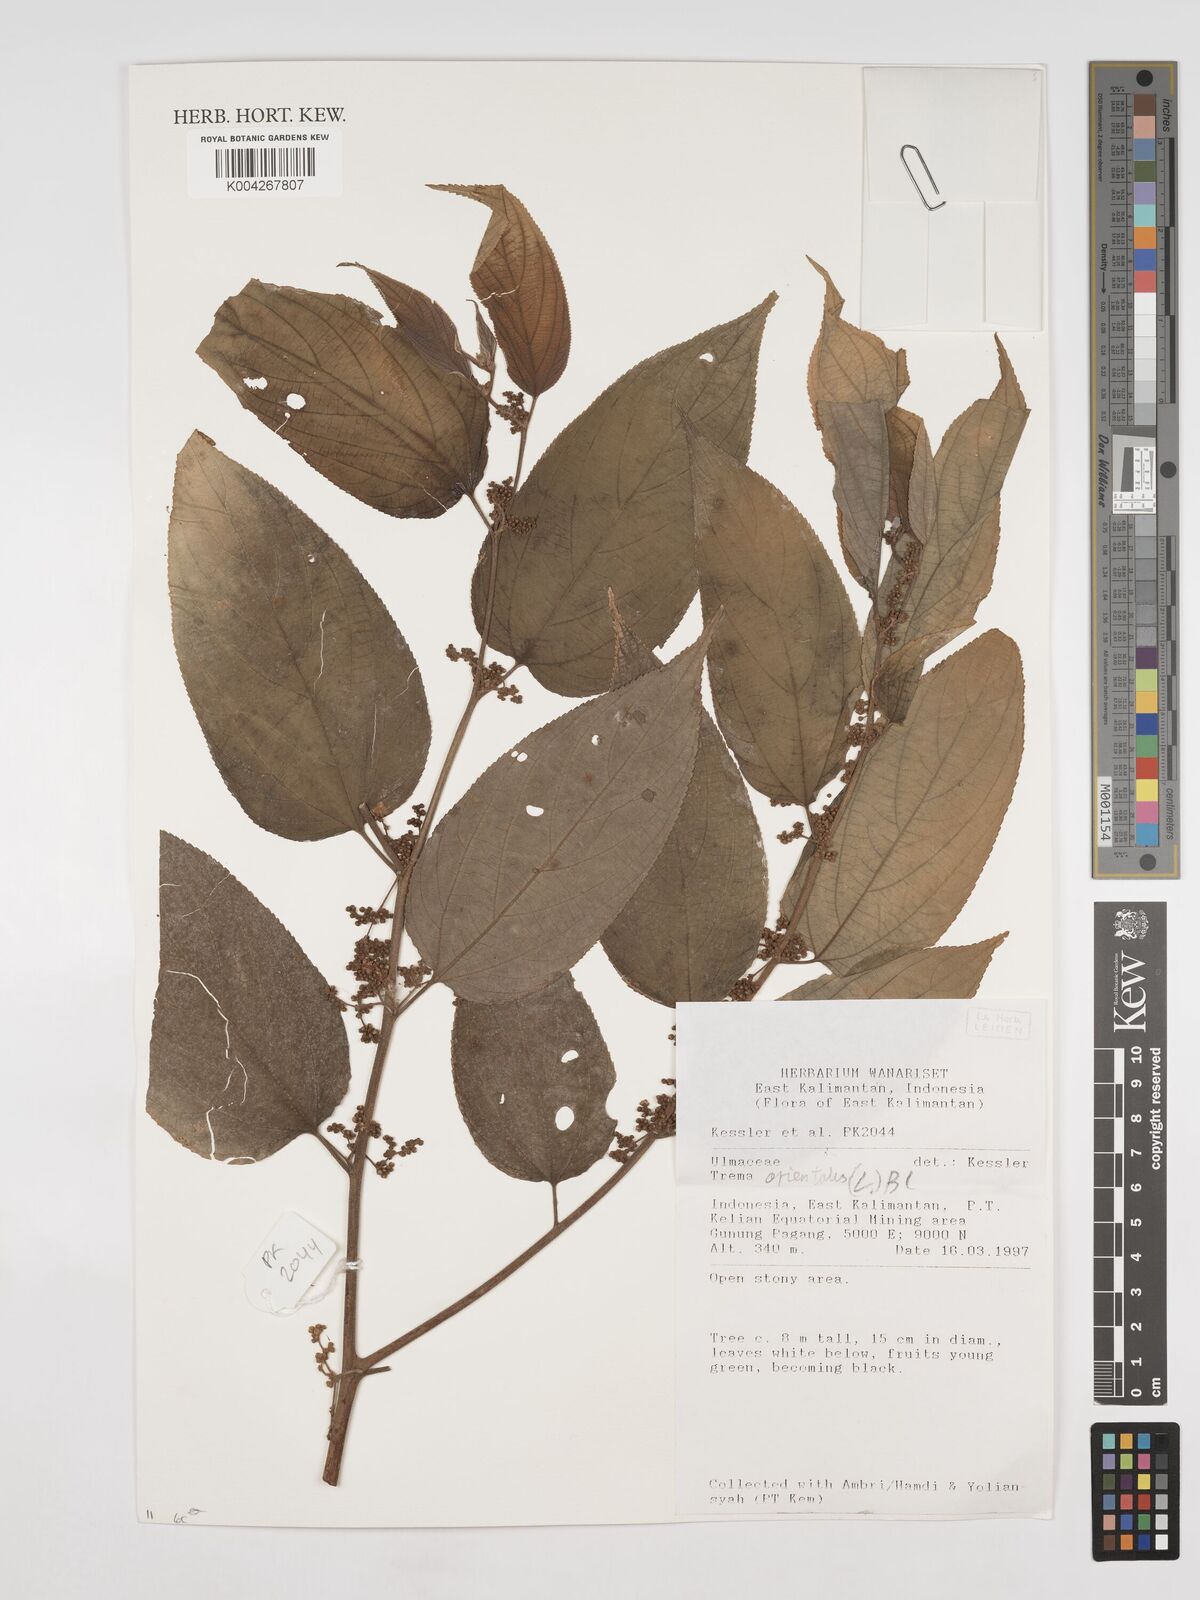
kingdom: Plantae
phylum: Tracheophyta
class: Magnoliopsida
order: Rosales
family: Cannabaceae
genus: Trema
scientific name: Trema orientale
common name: Indian charcoal tree
